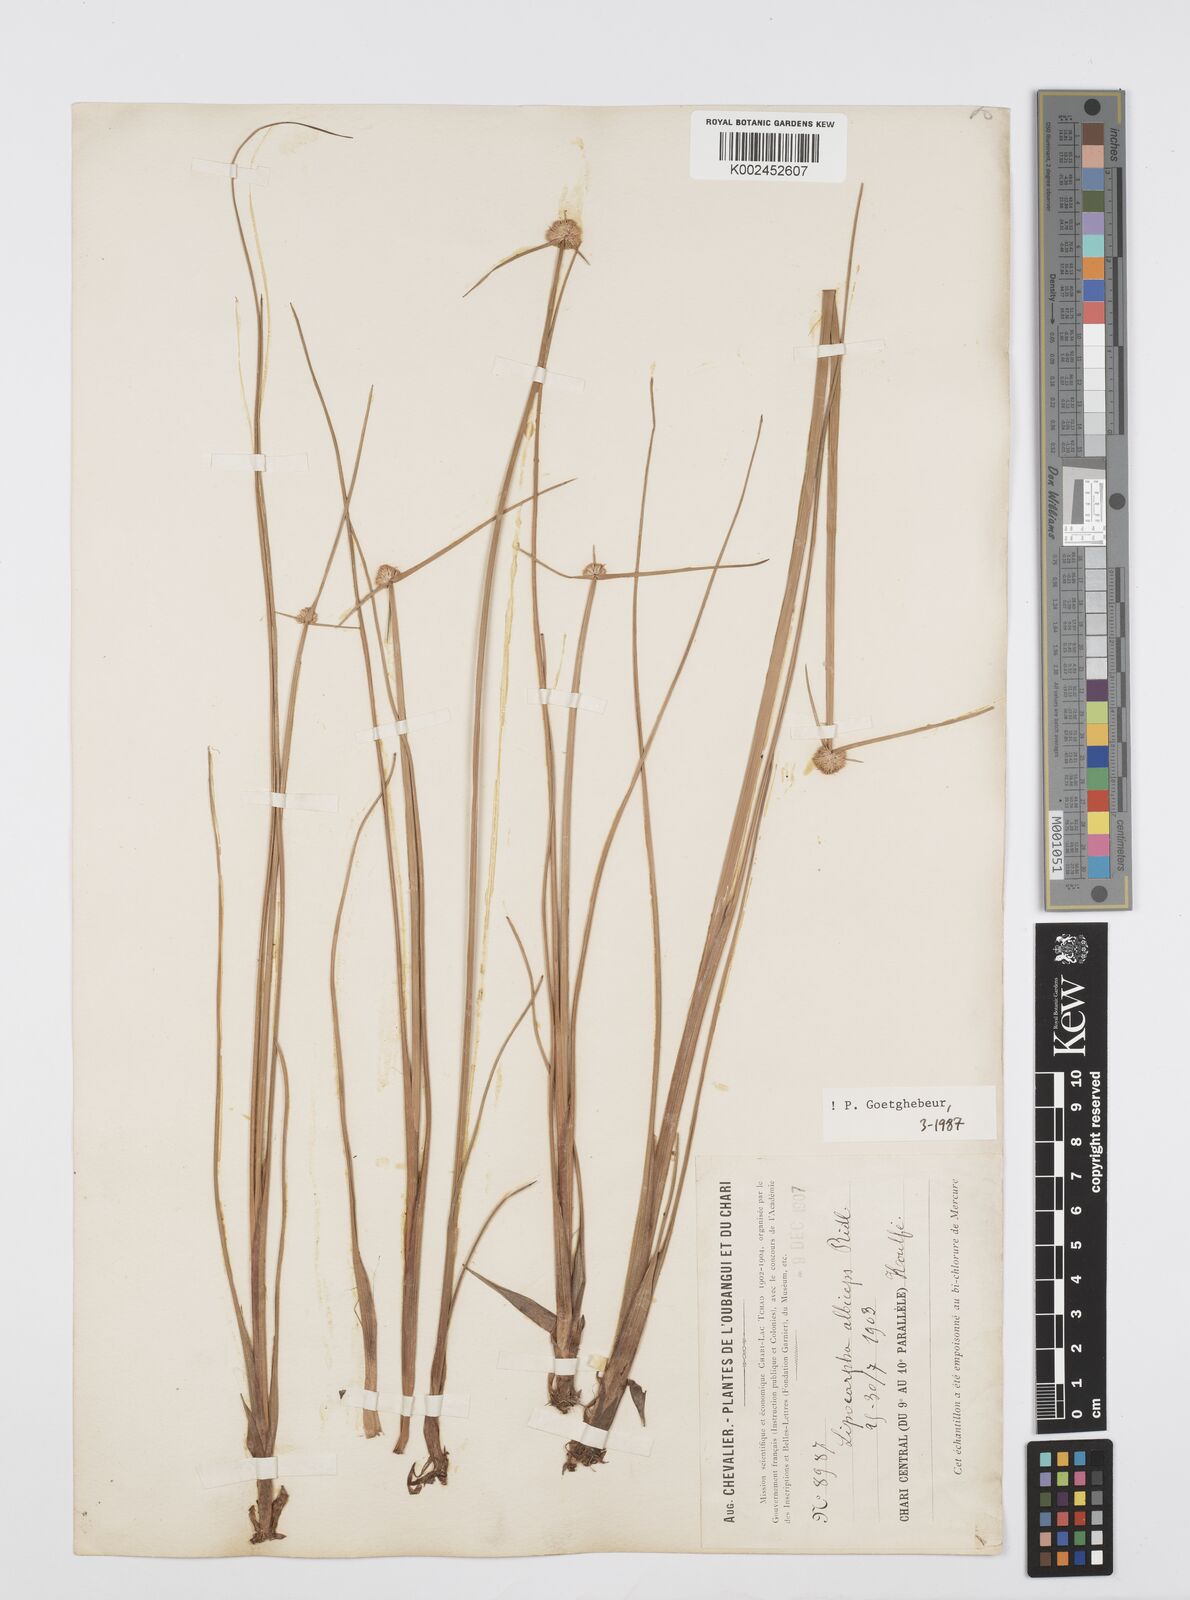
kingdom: Plantae
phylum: Tracheophyta
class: Liliopsida
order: Poales
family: Cyperaceae
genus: Cyperus
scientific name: Cyperus albiceps
